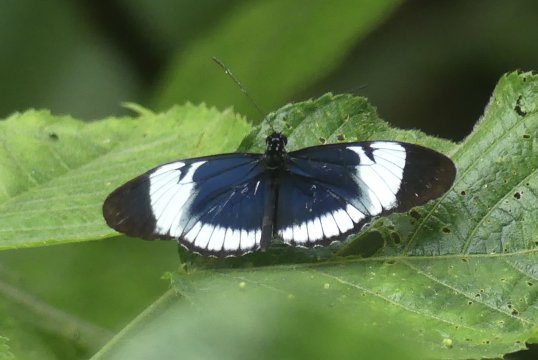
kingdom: Animalia
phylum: Arthropoda
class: Insecta
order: Lepidoptera
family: Nymphalidae
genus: Heliconius
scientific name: Heliconius cydno
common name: Cydno Longwing
